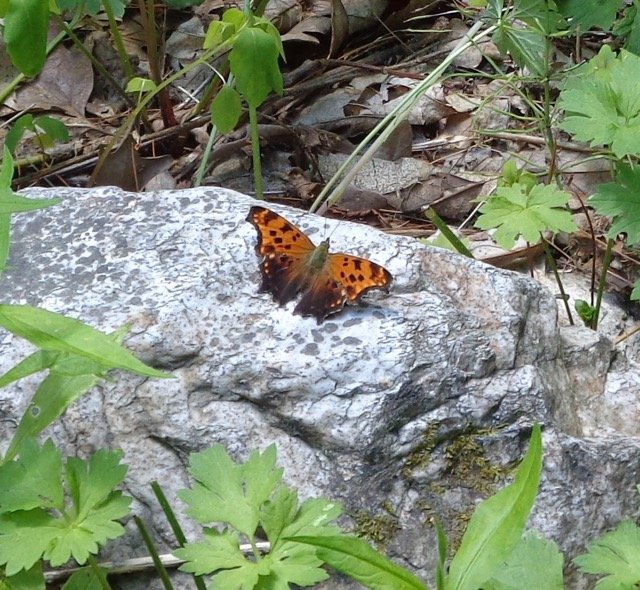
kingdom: Animalia
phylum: Arthropoda
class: Insecta
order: Lepidoptera
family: Nymphalidae
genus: Polygonia
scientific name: Polygonia comma
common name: Eastern Comma
